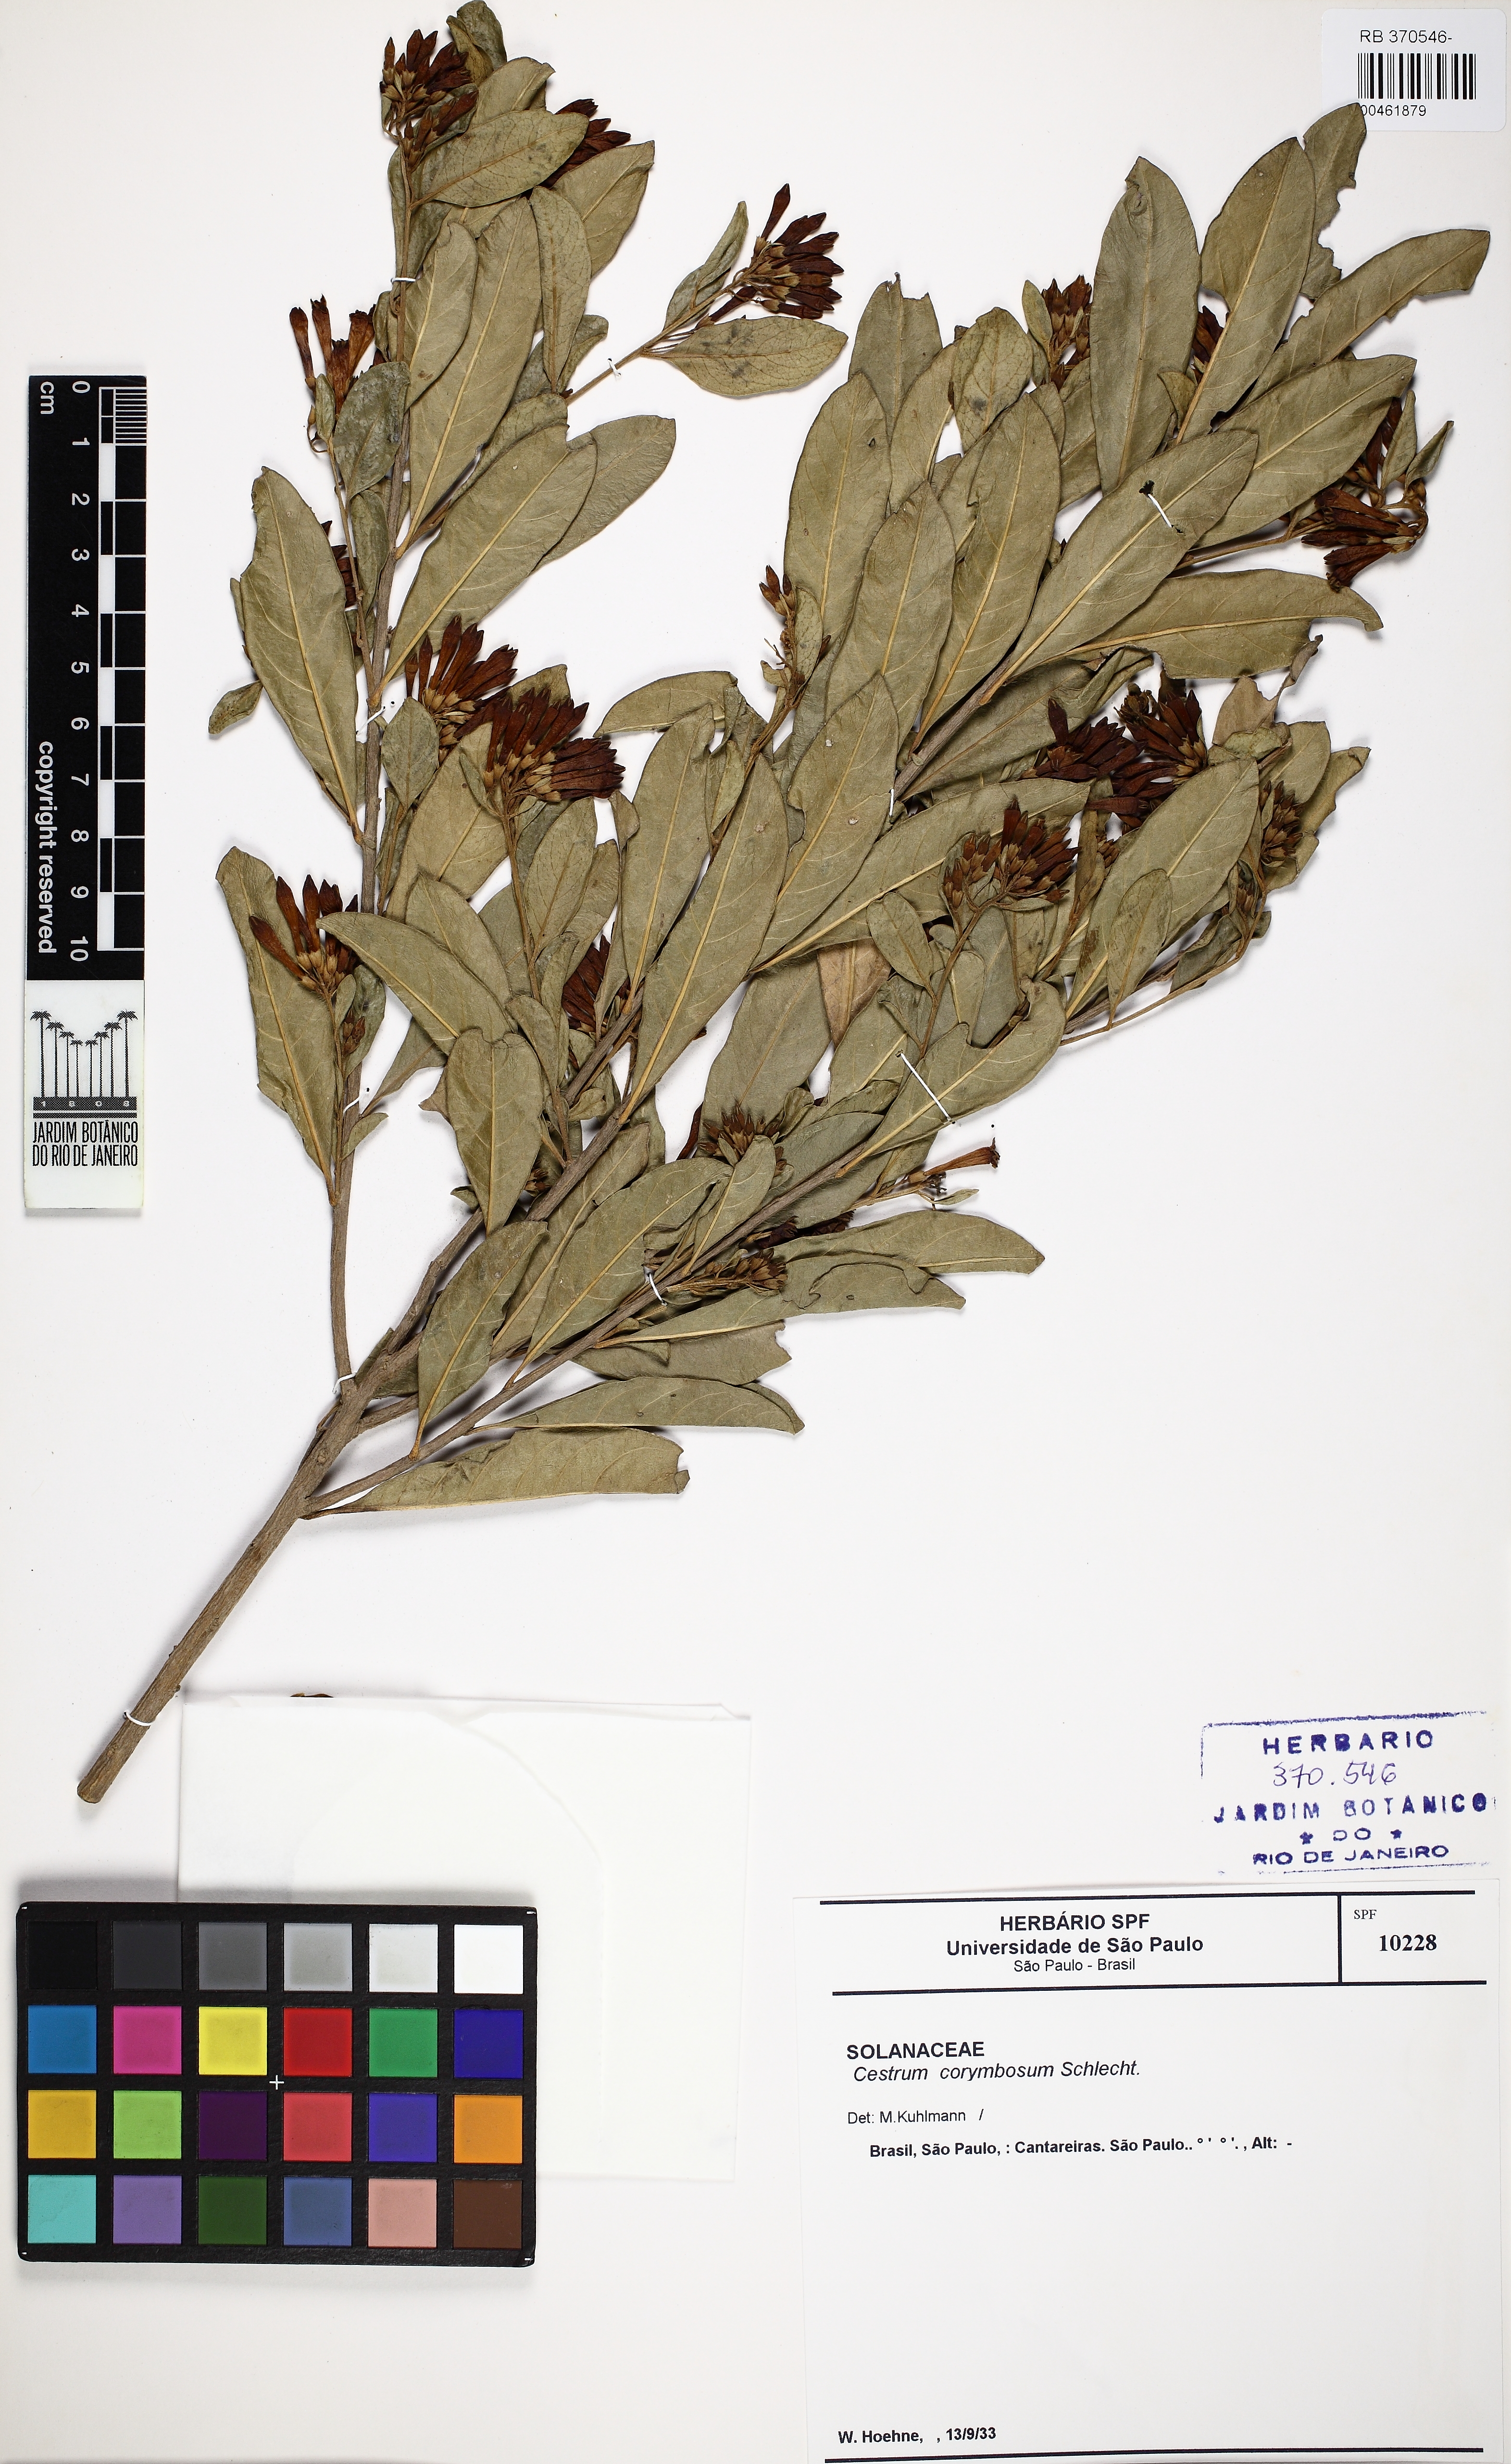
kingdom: Plantae
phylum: Tracheophyta
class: Magnoliopsida
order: Solanales
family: Solanaceae
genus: Cestrum
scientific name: Cestrum corymbosum
